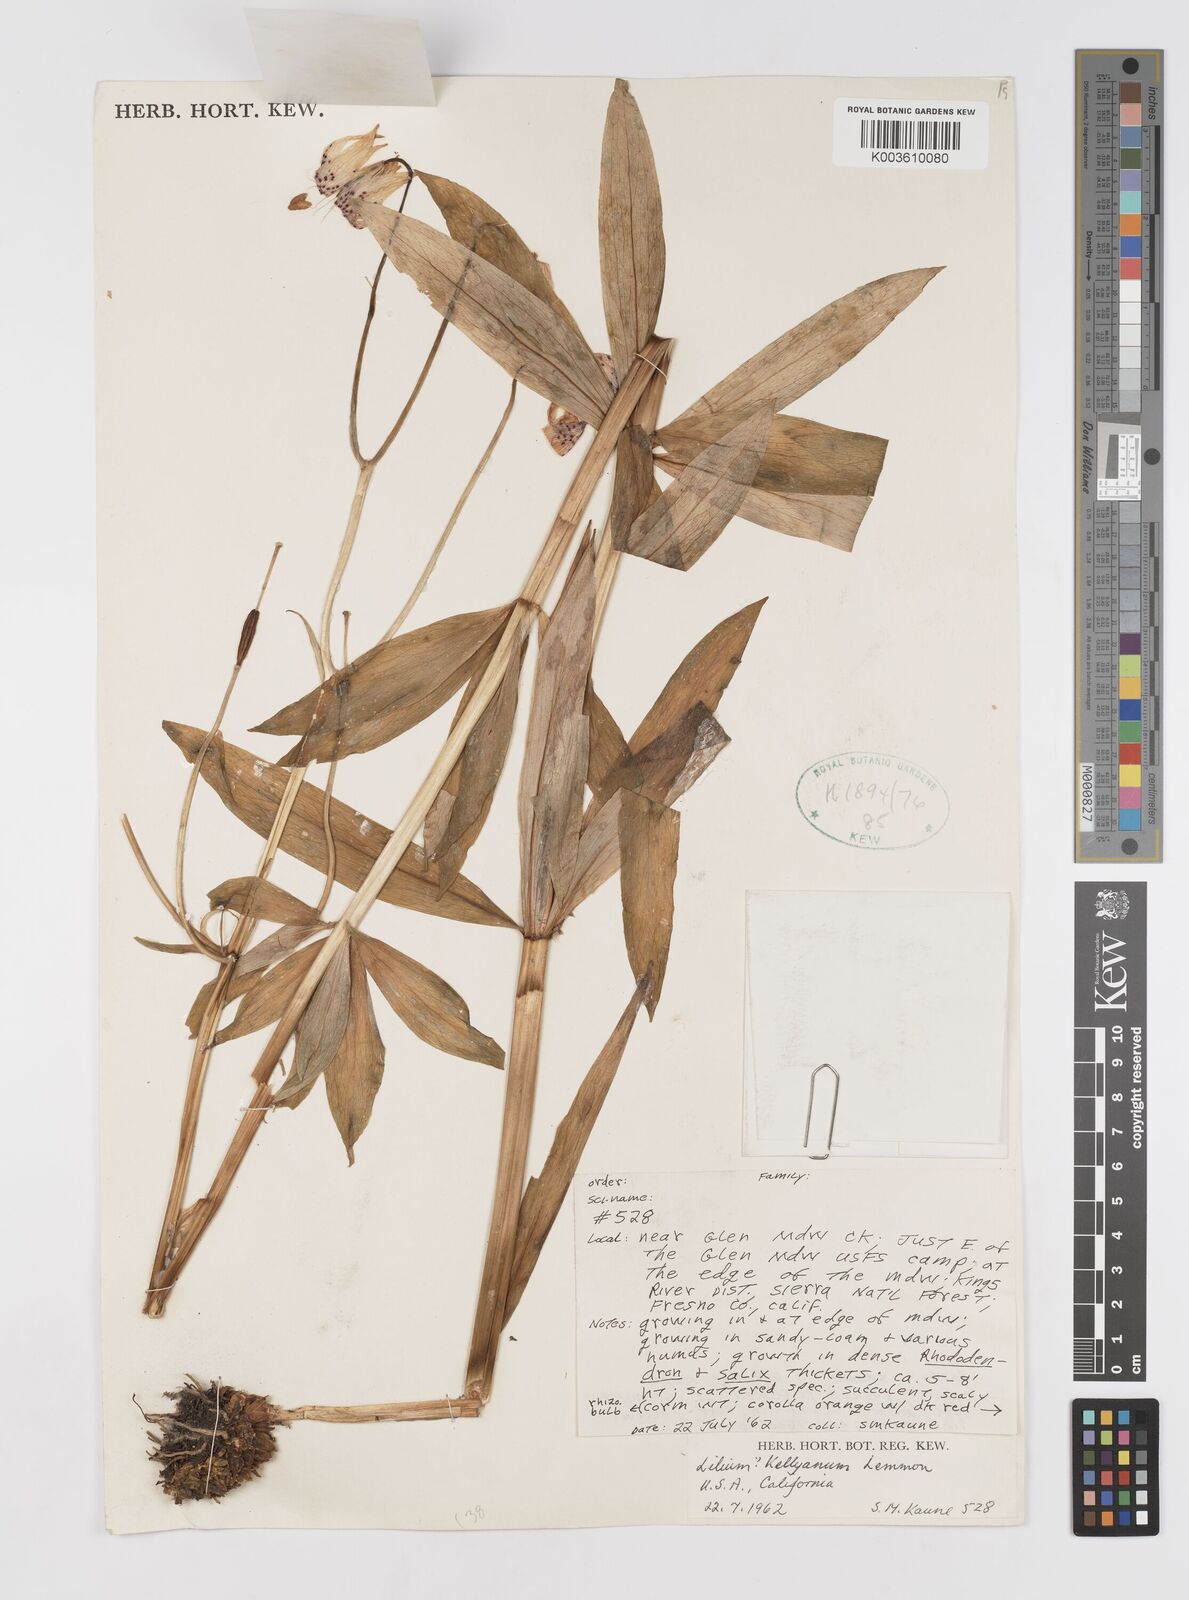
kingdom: Plantae
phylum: Tracheophyta
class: Liliopsida
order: Liliales
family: Liliaceae
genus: Lilium
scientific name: Lilium kelleyanum
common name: Kelley's lily
